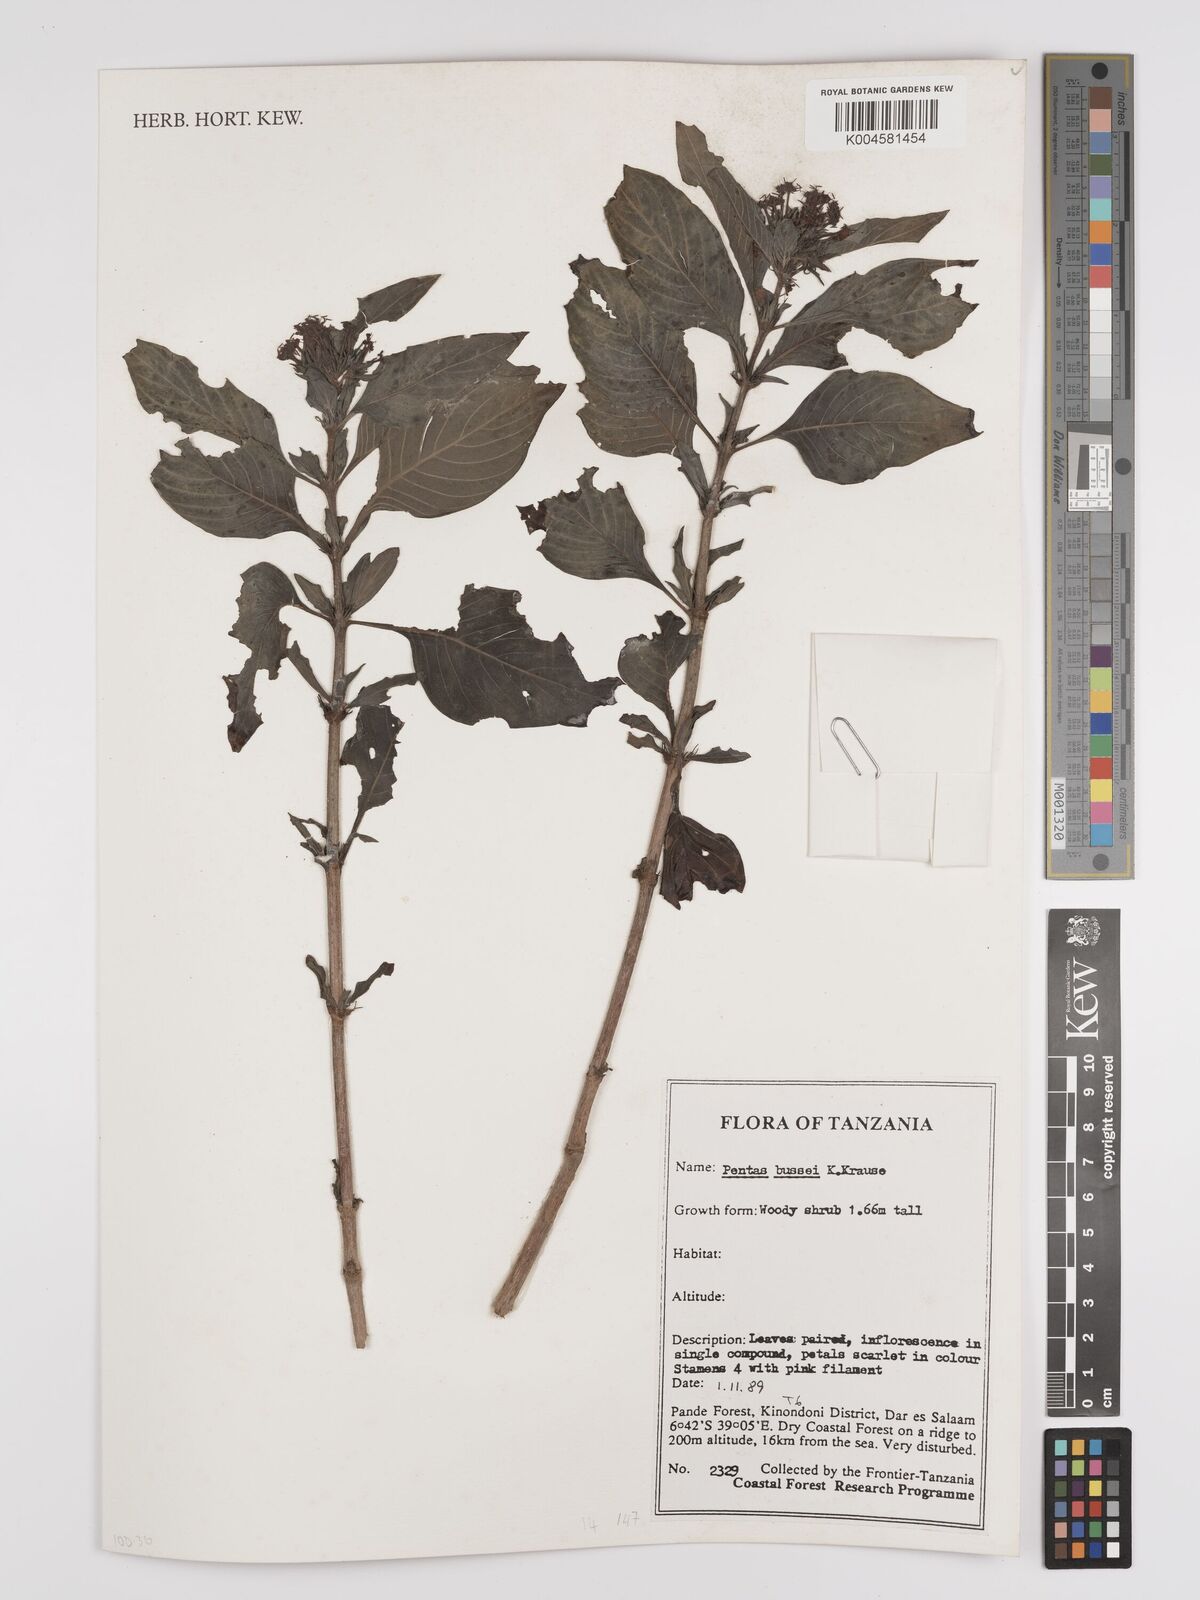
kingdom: Plantae
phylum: Tracheophyta
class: Magnoliopsida
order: Gentianales
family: Rubiaceae
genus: Rhodopentas
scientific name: Rhodopentas bussei
